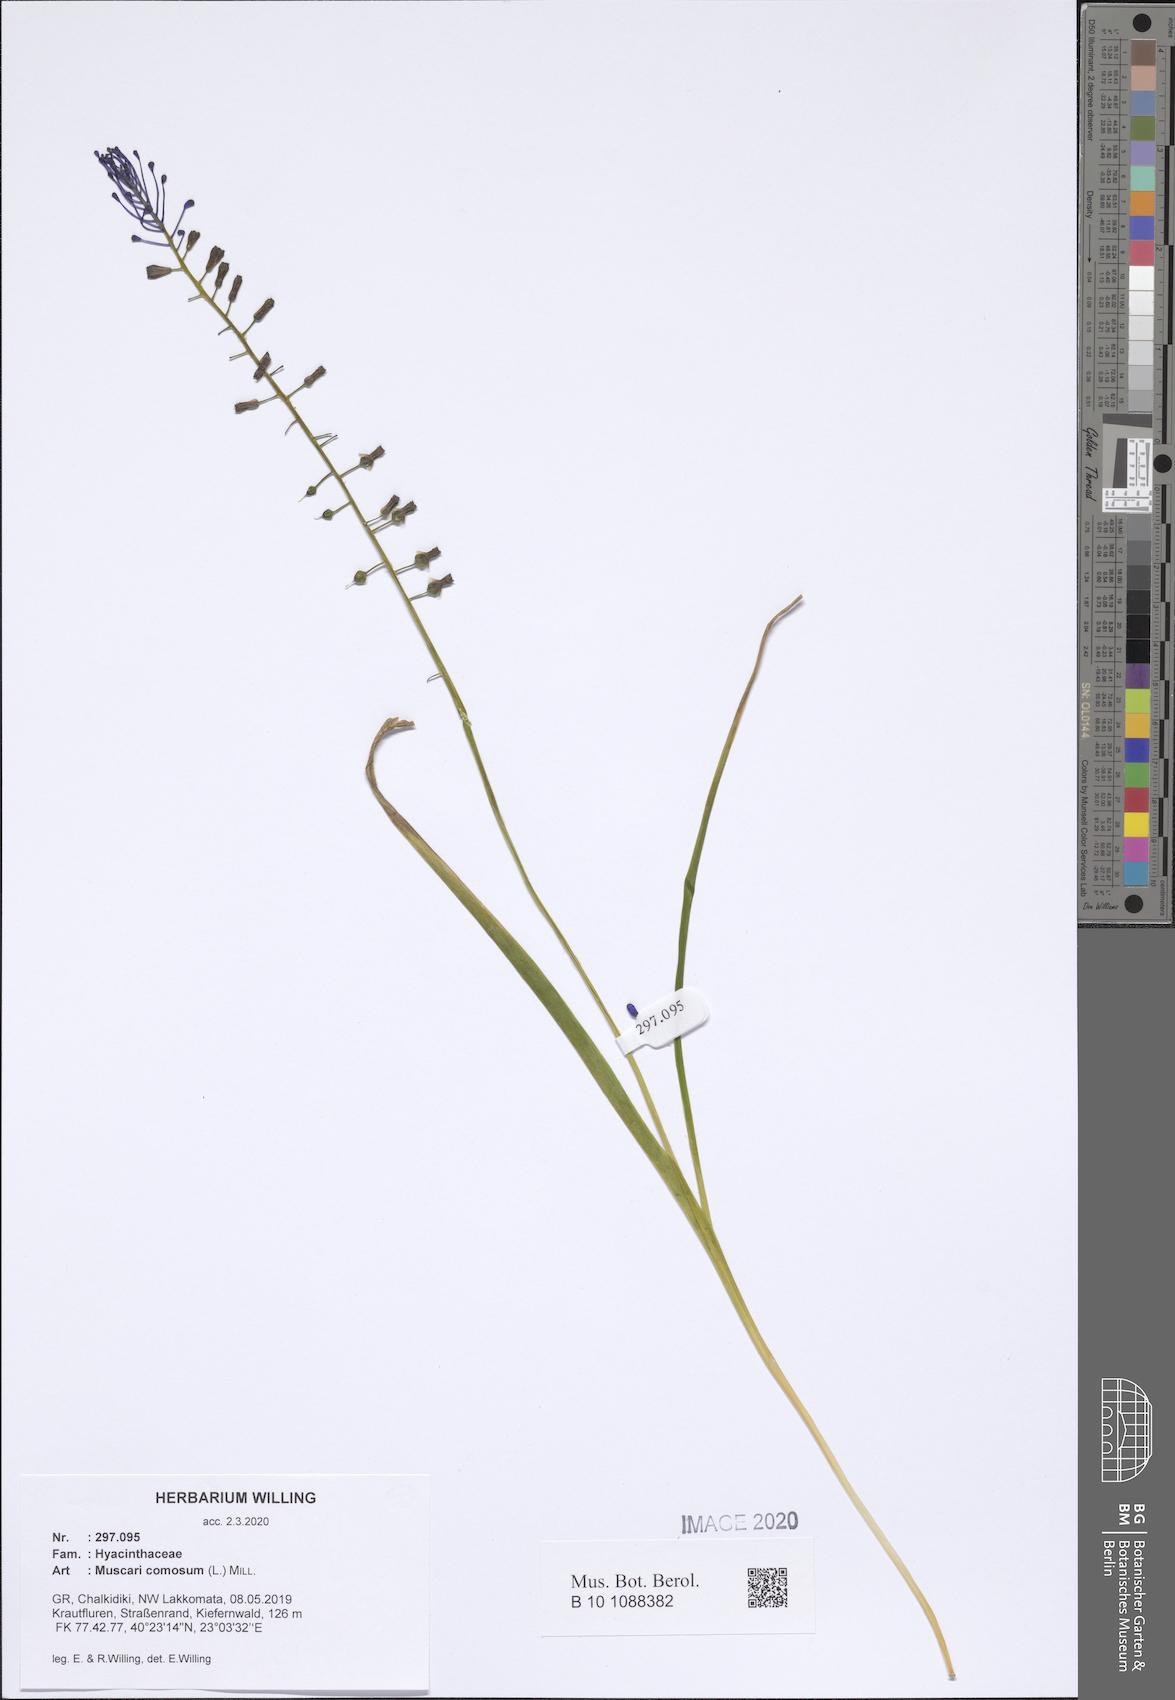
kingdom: Plantae
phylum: Tracheophyta
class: Liliopsida
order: Asparagales
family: Asparagaceae
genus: Muscari
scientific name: Muscari comosum
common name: Tassel hyacinth
